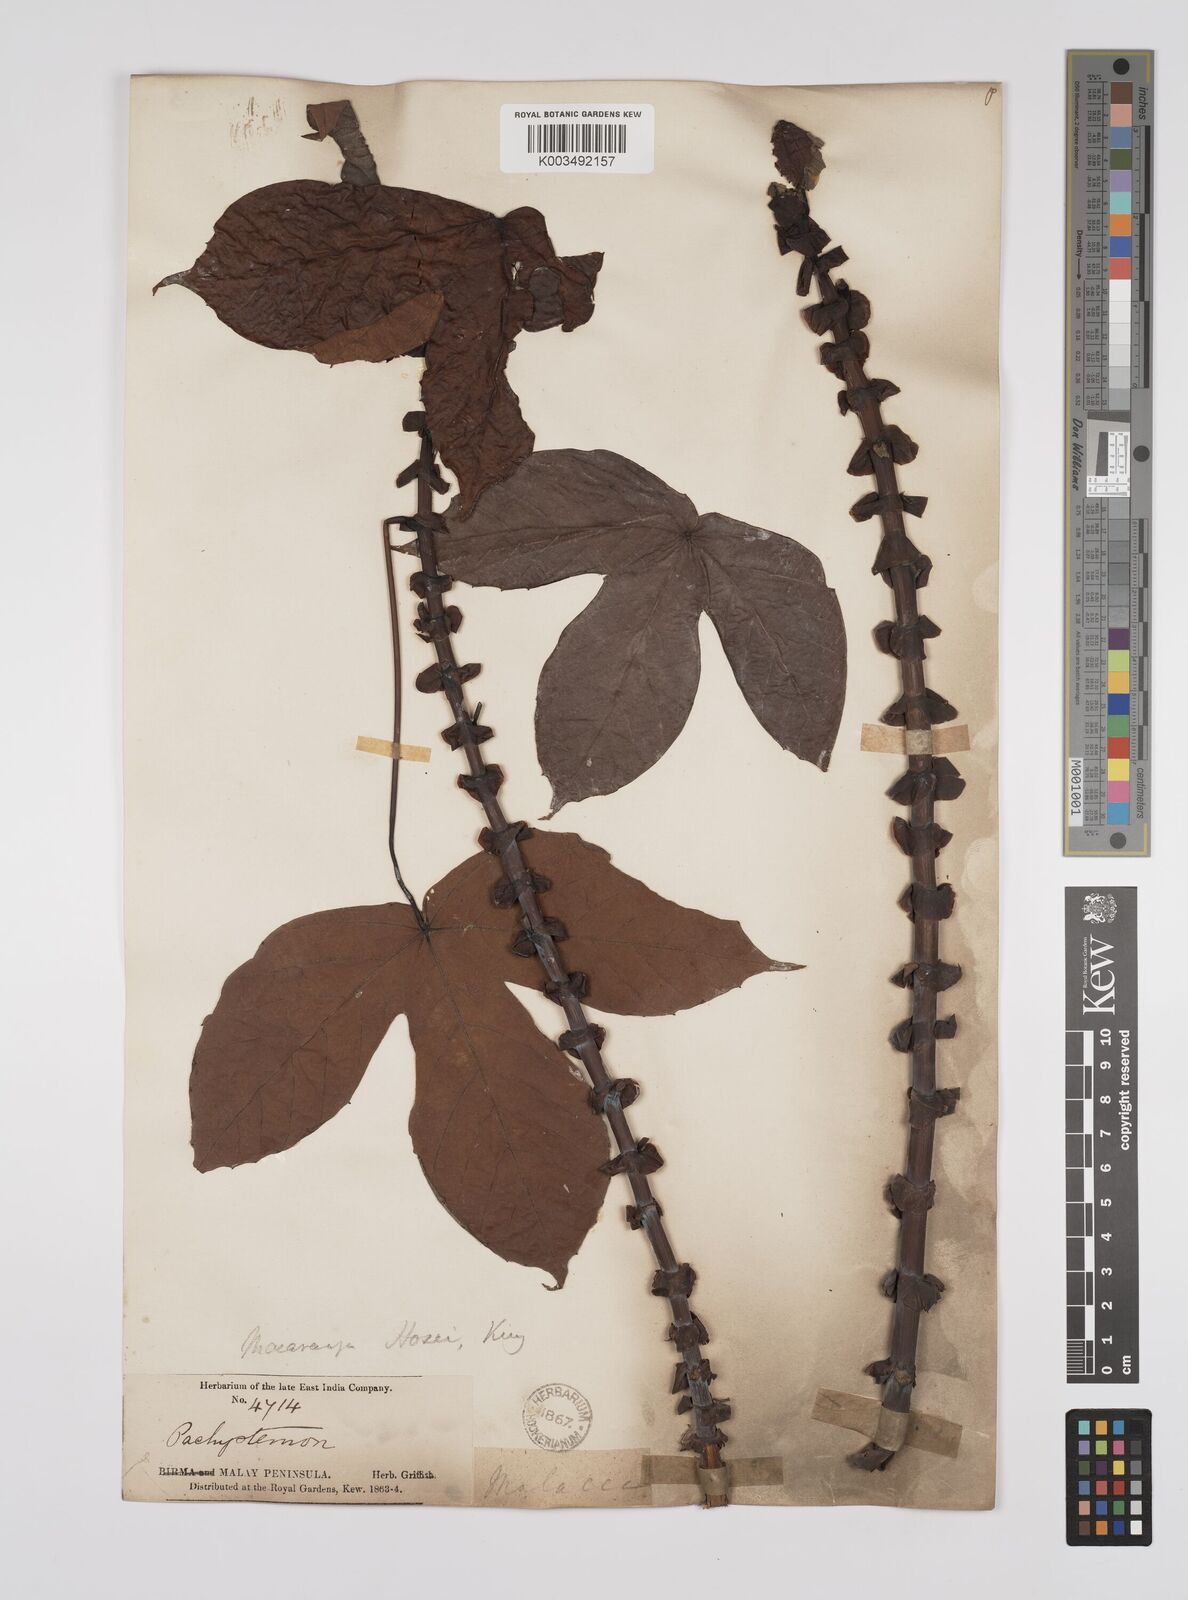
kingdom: Plantae
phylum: Tracheophyta
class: Magnoliopsida
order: Malpighiales
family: Euphorbiaceae
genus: Macaranga
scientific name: Macaranga hosei
